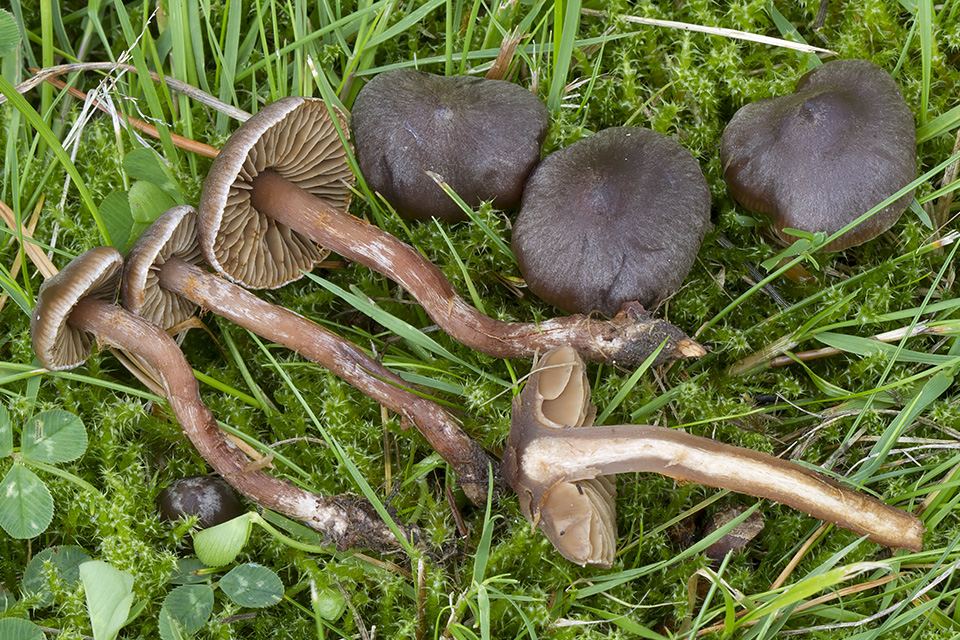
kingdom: Fungi
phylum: Basidiomycota
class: Agaricomycetes
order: Agaricales
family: Cortinariaceae
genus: Cortinarius
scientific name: Cortinarius alboadustus
